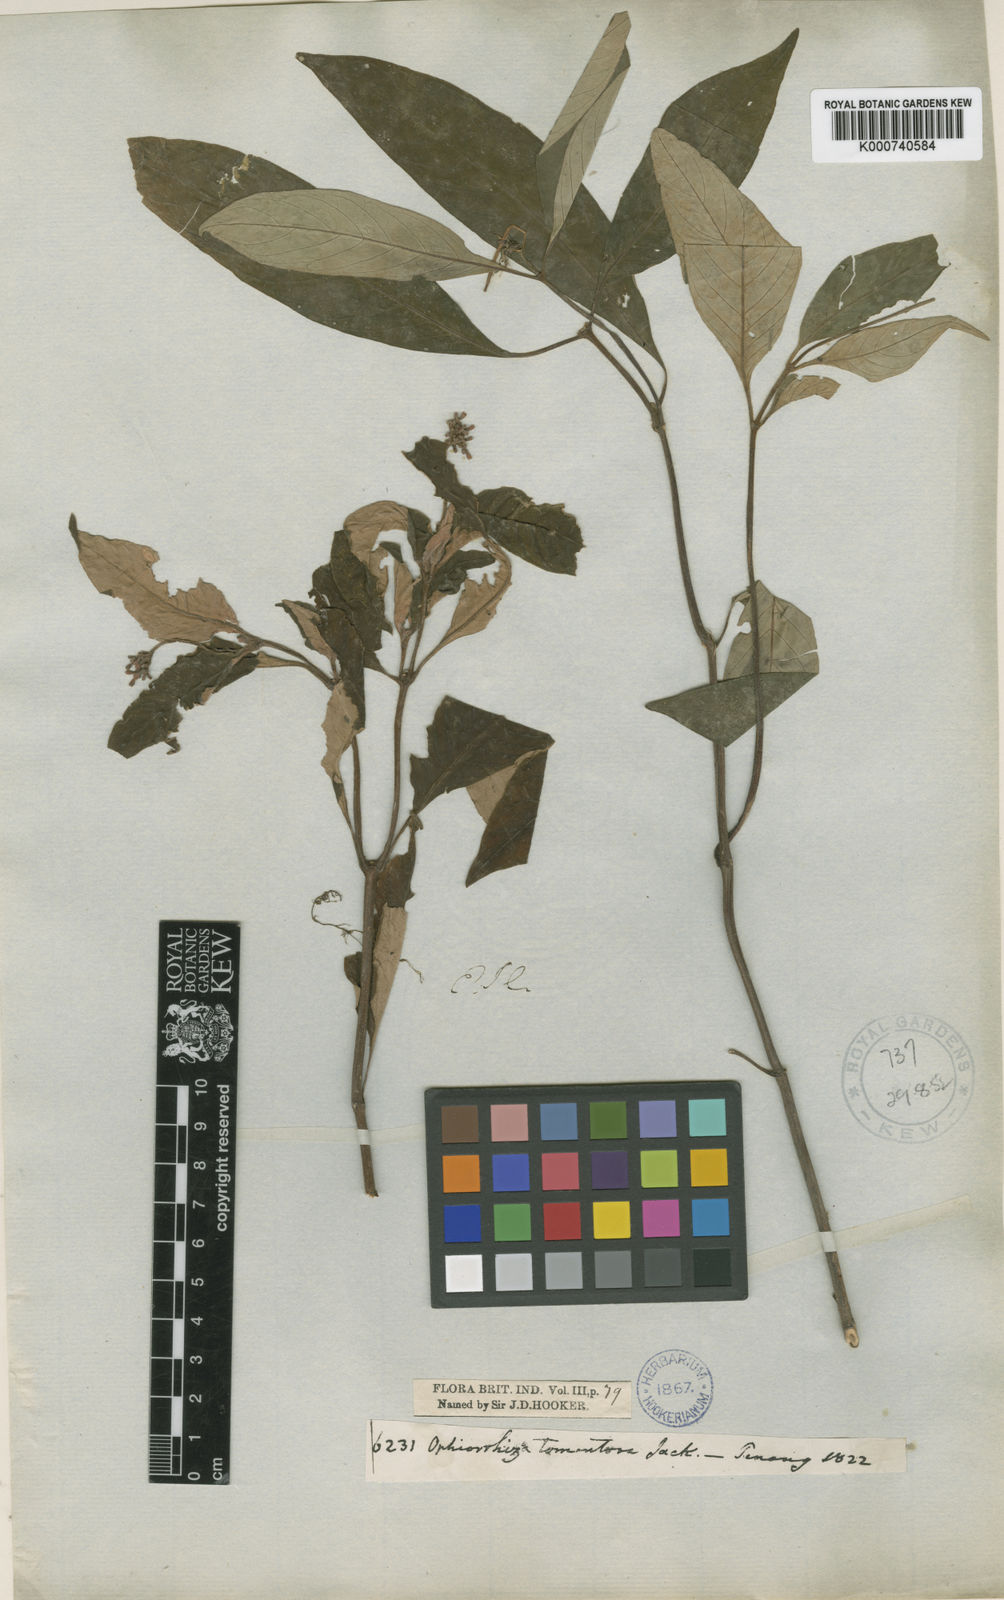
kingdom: Plantae
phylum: Tracheophyta
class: Magnoliopsida
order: Gentianales
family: Rubiaceae
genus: Ophiorrhiza
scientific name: Ophiorrhiza
